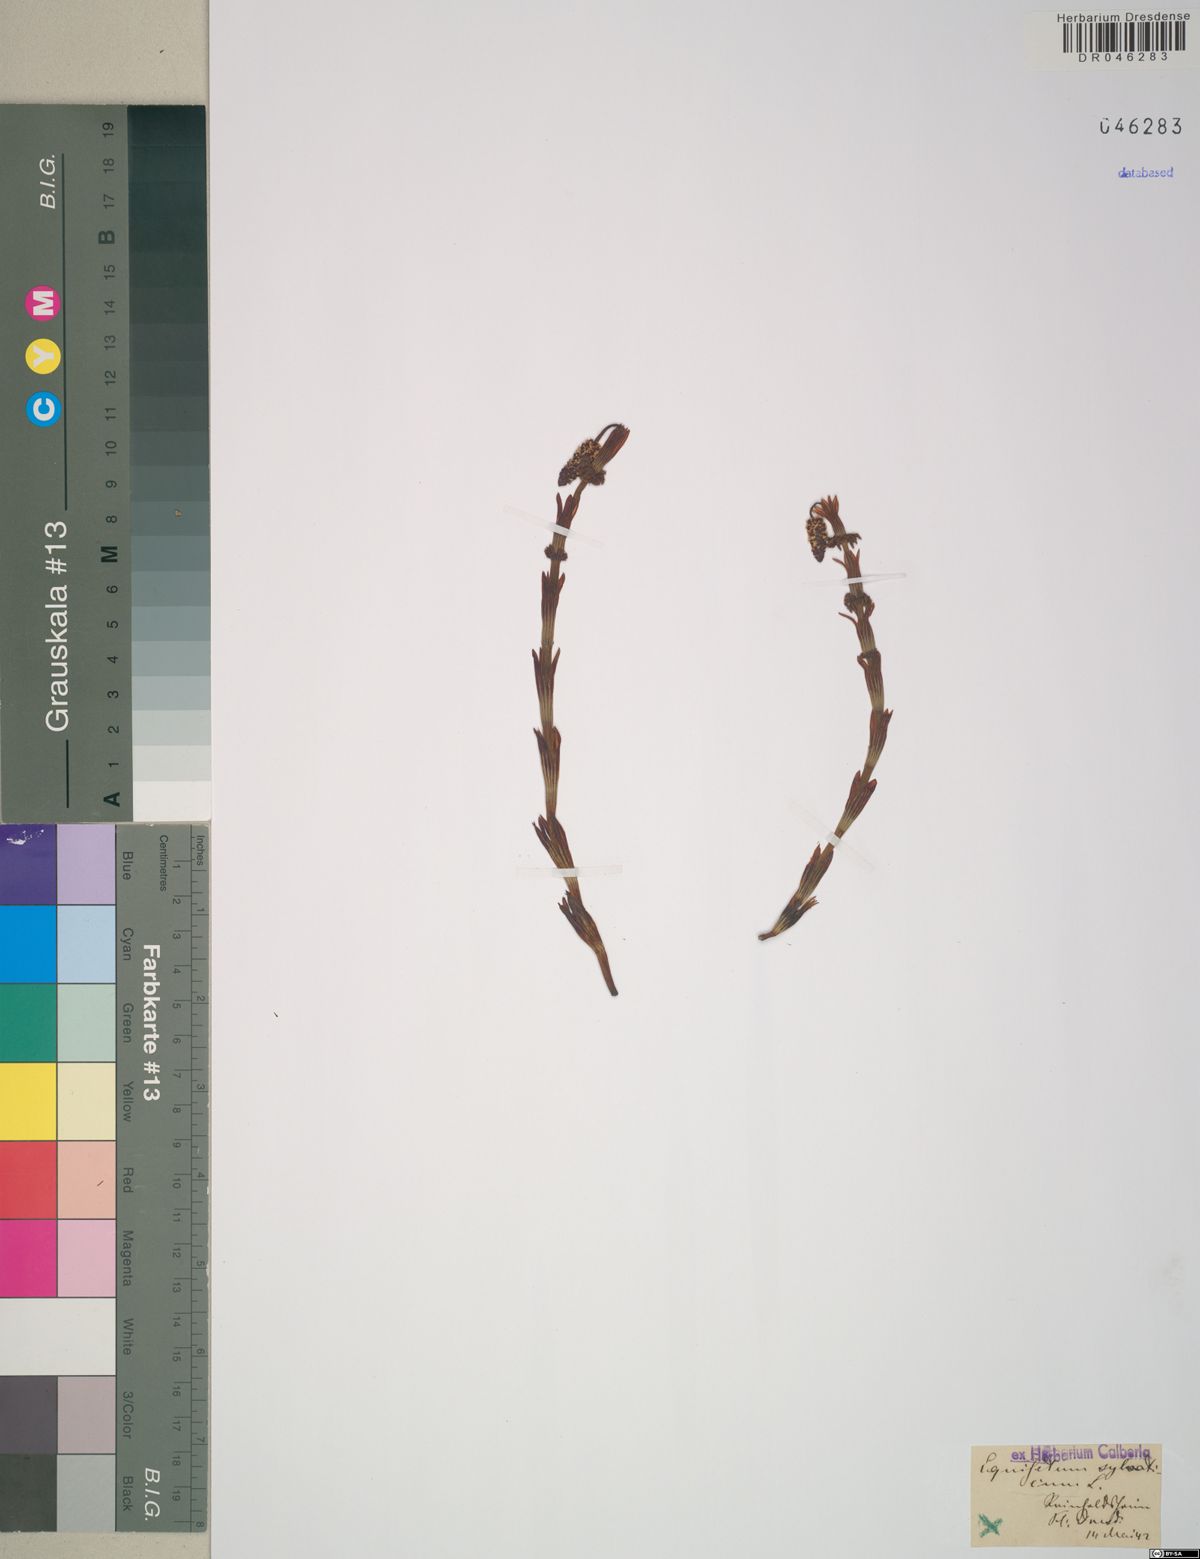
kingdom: Plantae
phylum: Tracheophyta
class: Polypodiopsida
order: Equisetales
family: Equisetaceae
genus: Equisetum
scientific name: Equisetum sylvaticum
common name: Wood horsetail
